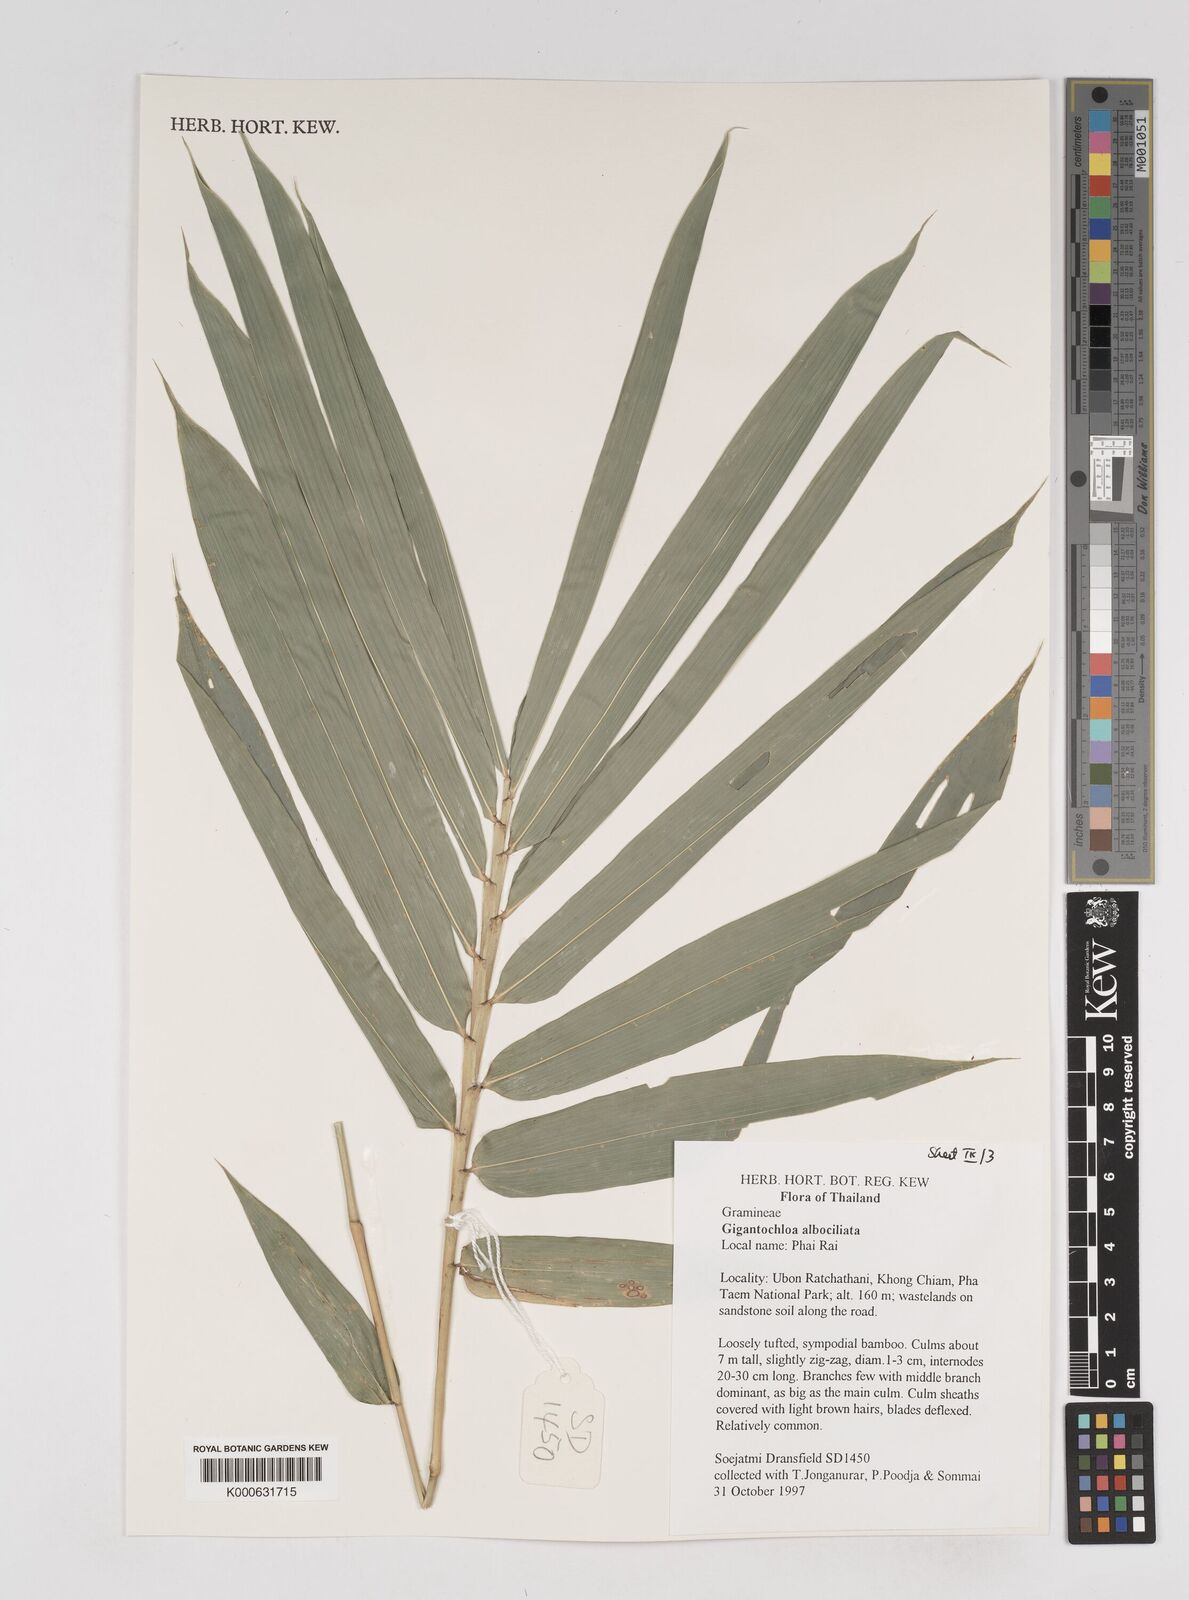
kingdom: Plantae
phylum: Tracheophyta
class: Liliopsida
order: Poales
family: Poaceae
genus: Gigantochloa
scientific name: Gigantochloa albociliata
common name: White-fringe gigantochloa
